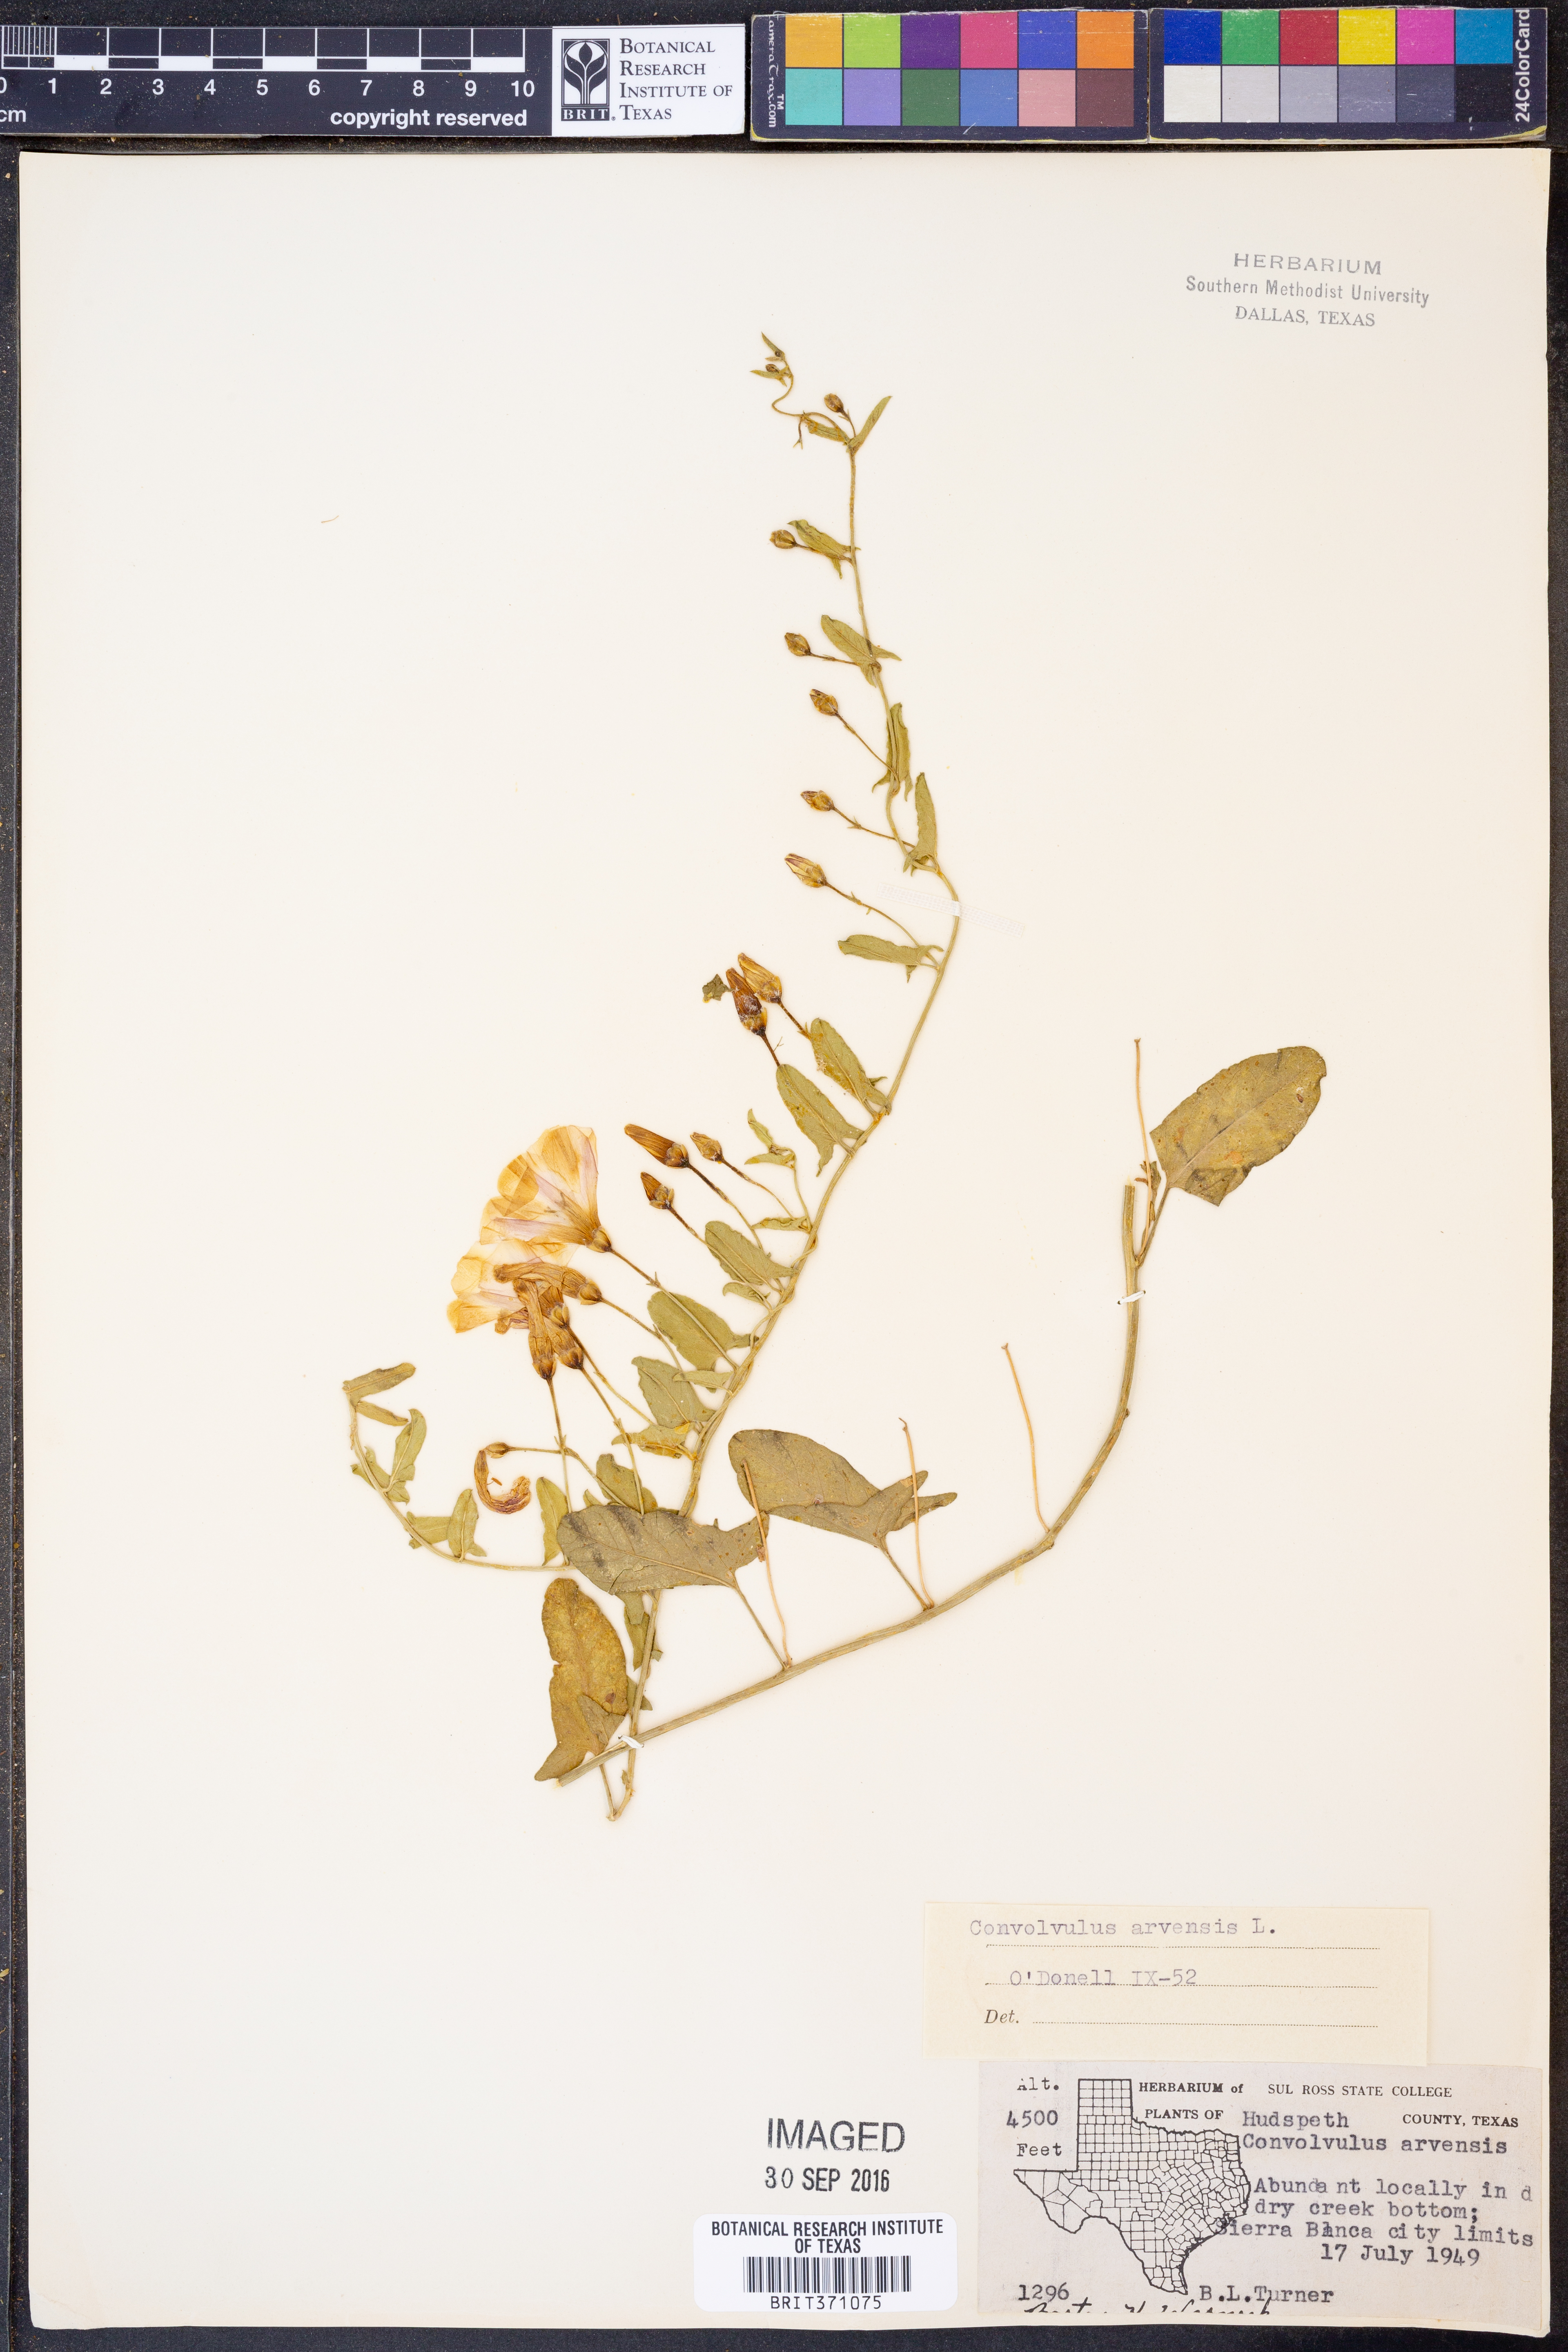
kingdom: Plantae
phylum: Tracheophyta
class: Magnoliopsida
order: Solanales
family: Convolvulaceae
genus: Convolvulus
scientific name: Convolvulus arvensis
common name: Field bindweed
